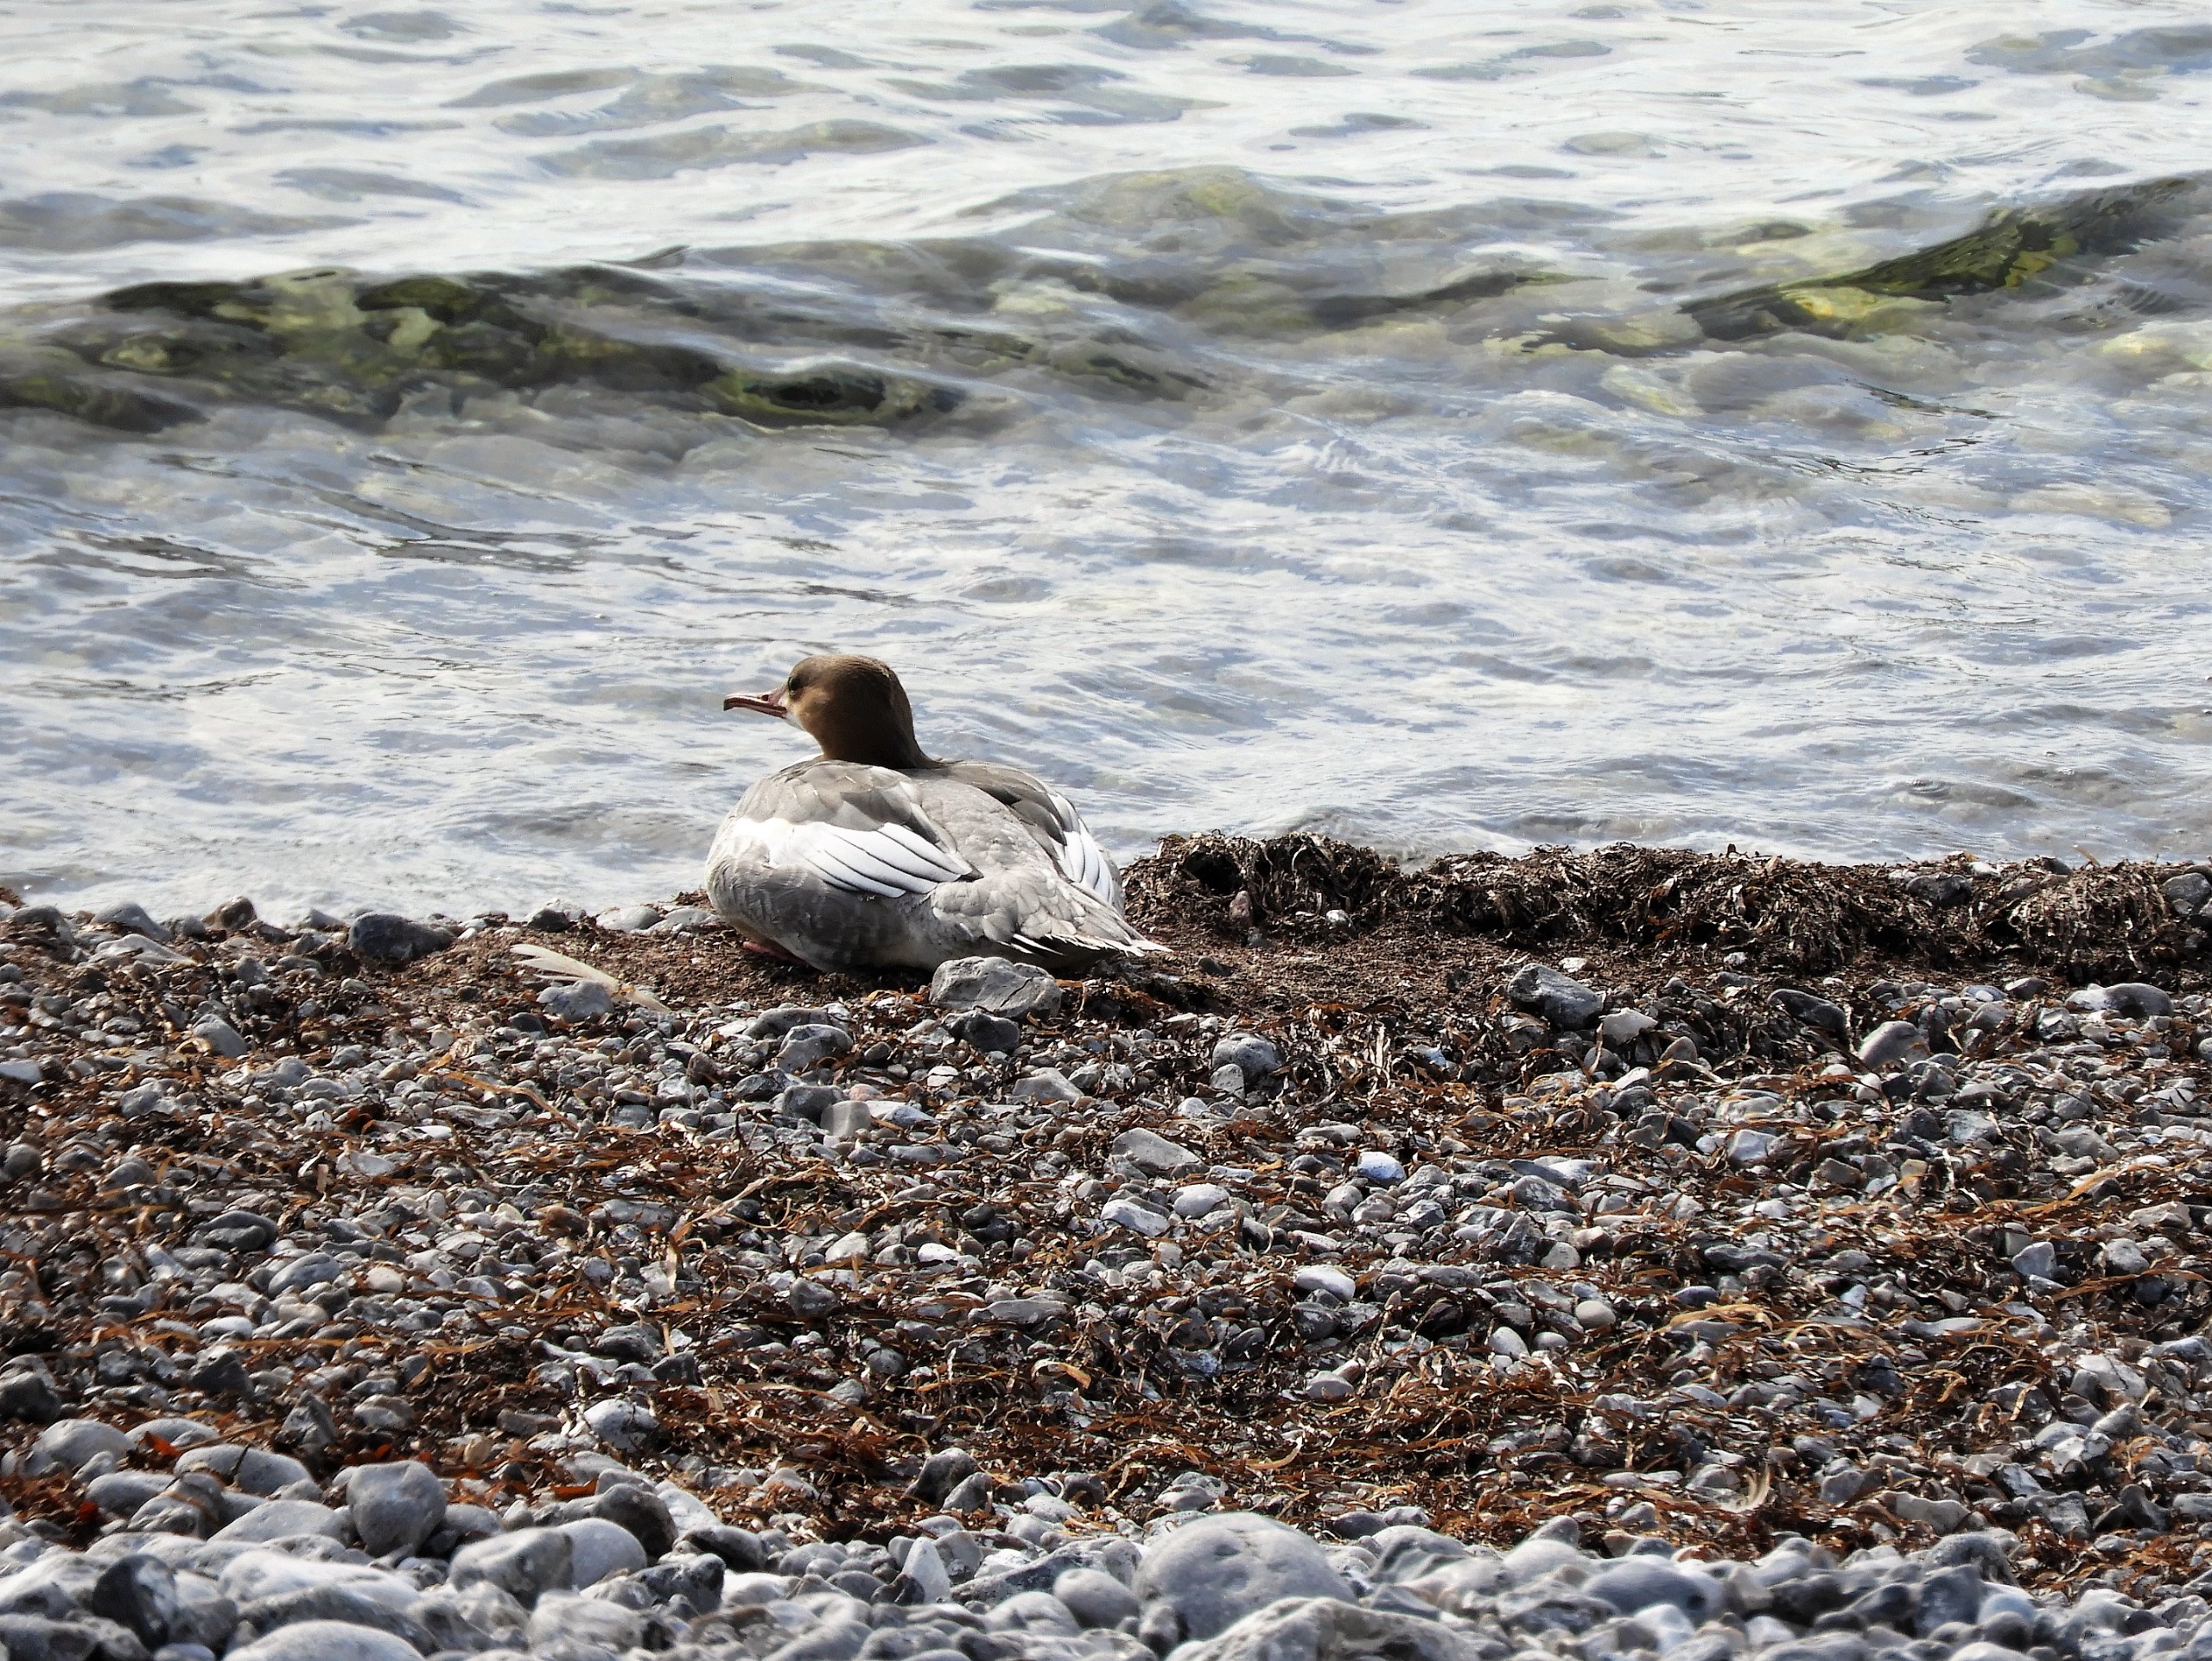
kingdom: Animalia
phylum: Chordata
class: Aves
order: Anseriformes
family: Anatidae
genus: Mergus
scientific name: Mergus merganser
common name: Stor skallesluger
